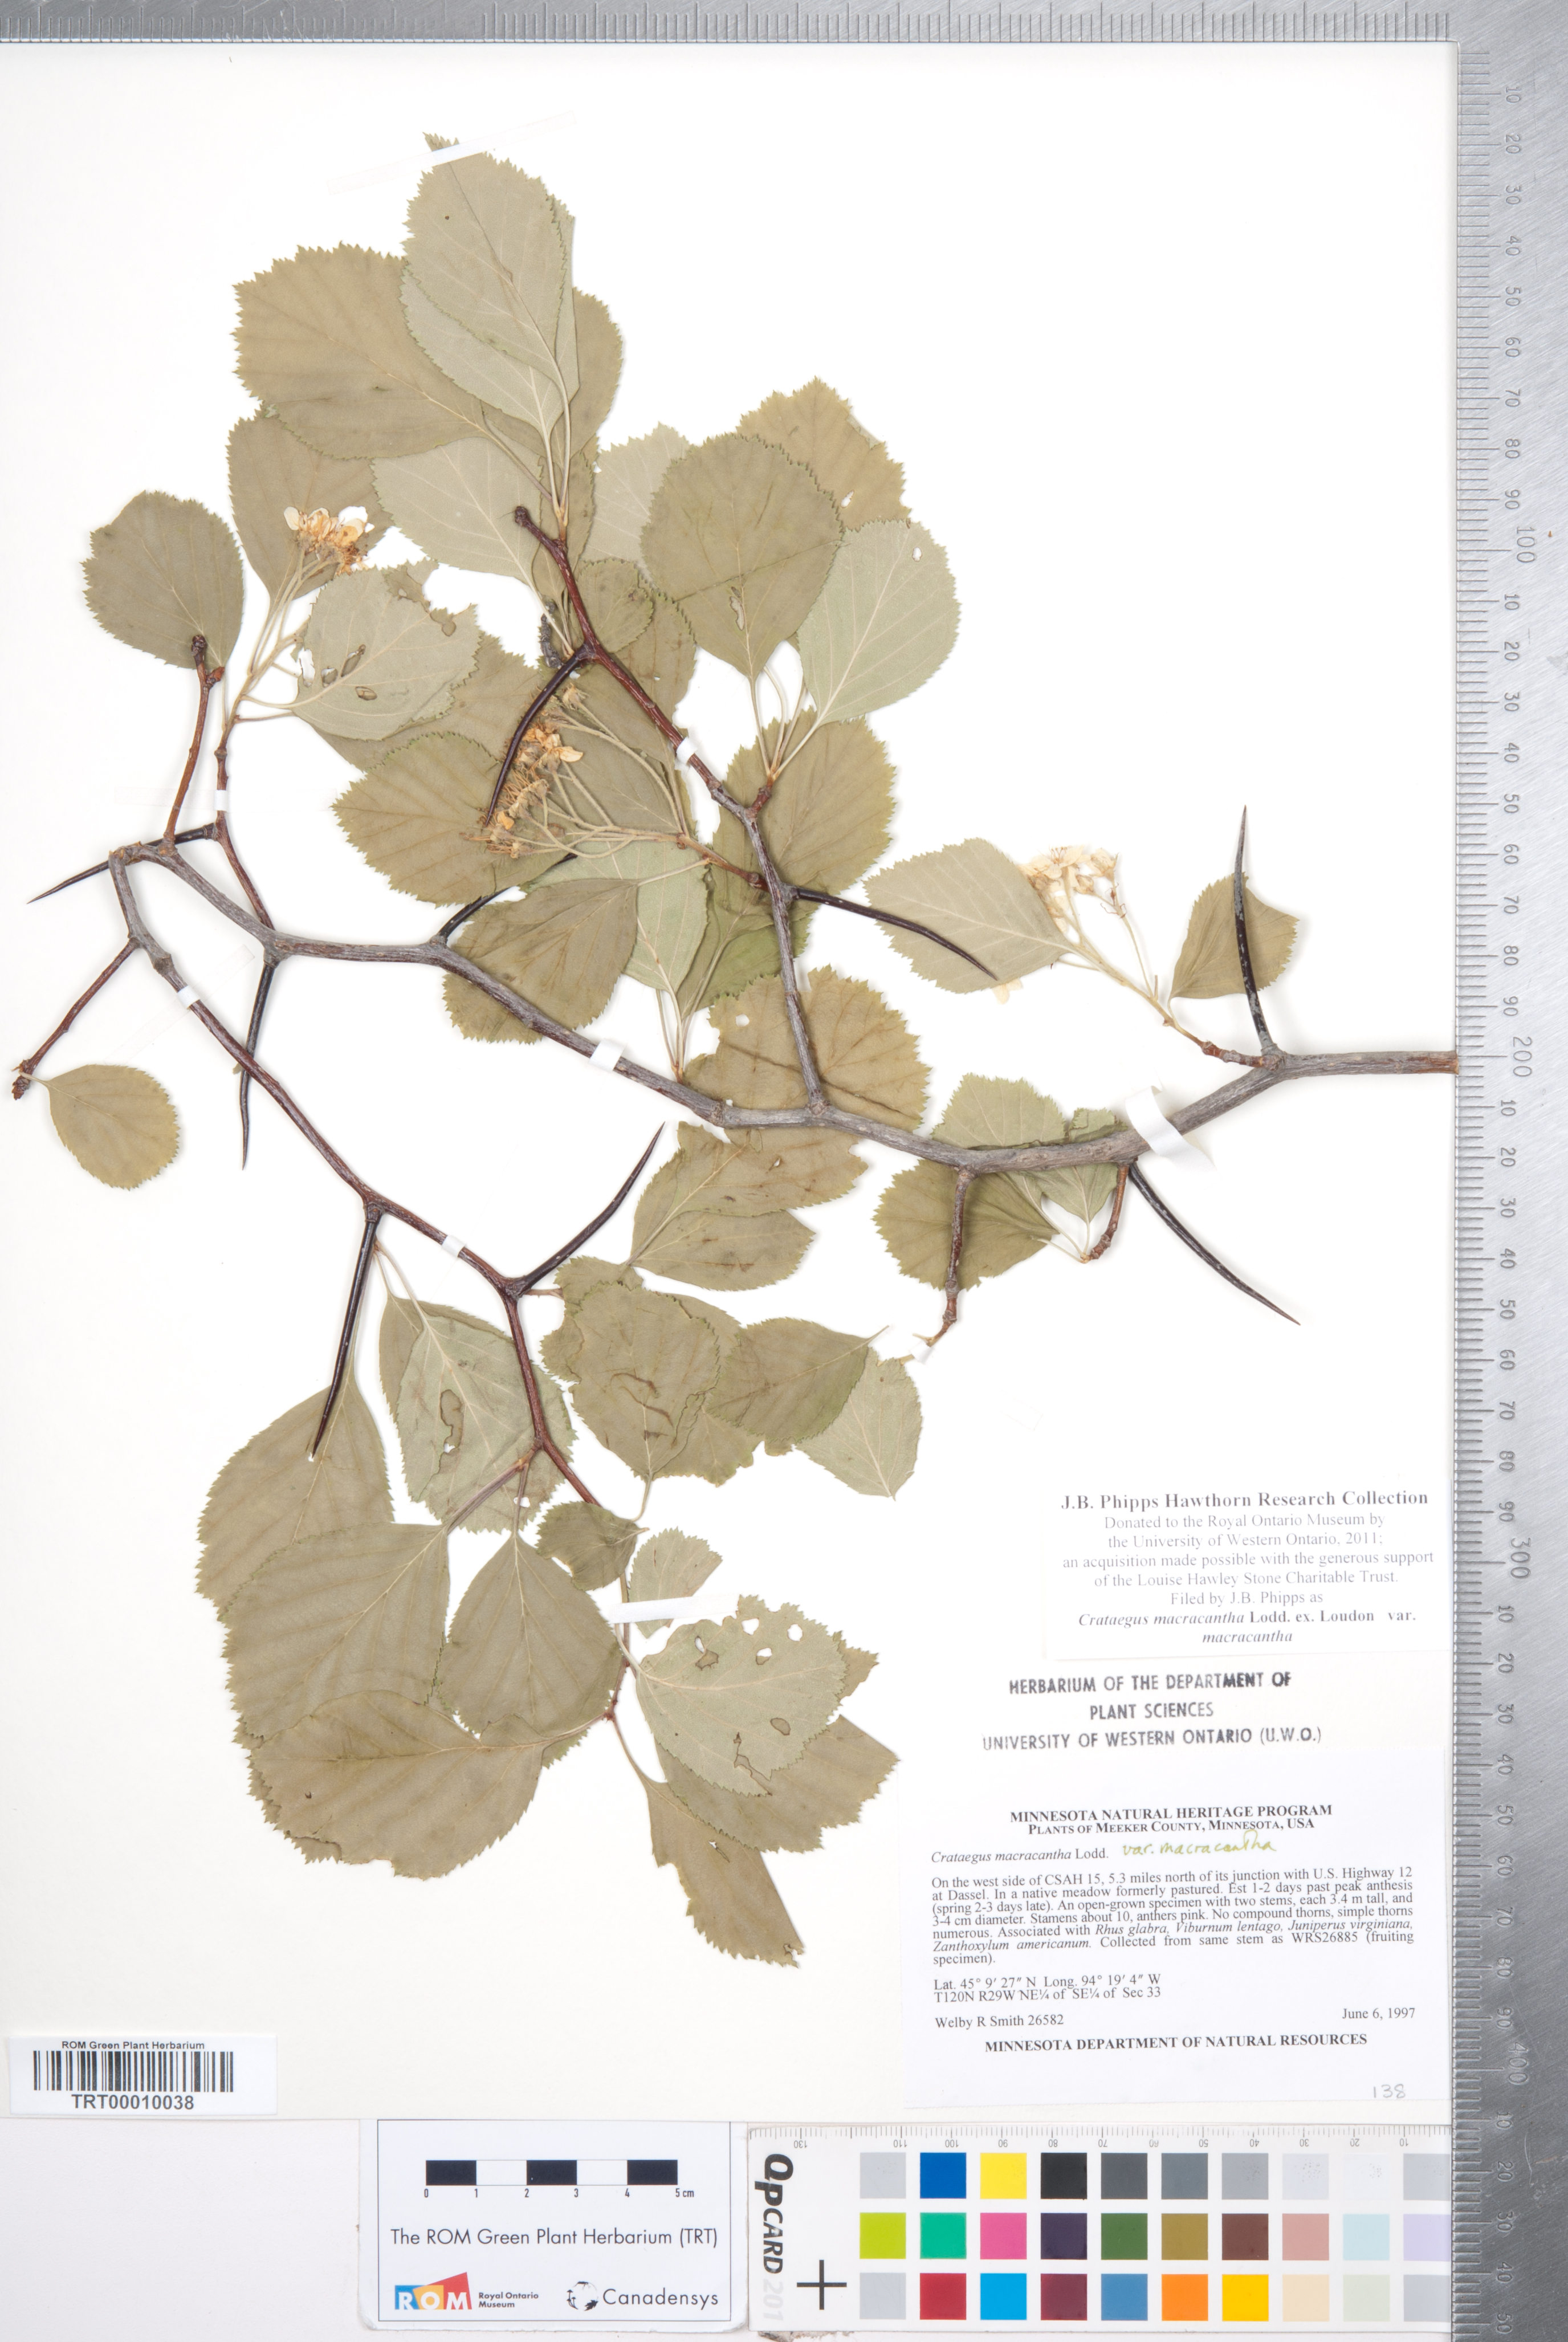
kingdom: Plantae
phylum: Tracheophyta
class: Magnoliopsida
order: Rosales
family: Rosaceae
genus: Crataegus
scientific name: Crataegus macracantha
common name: Large-thorn hawthorn
